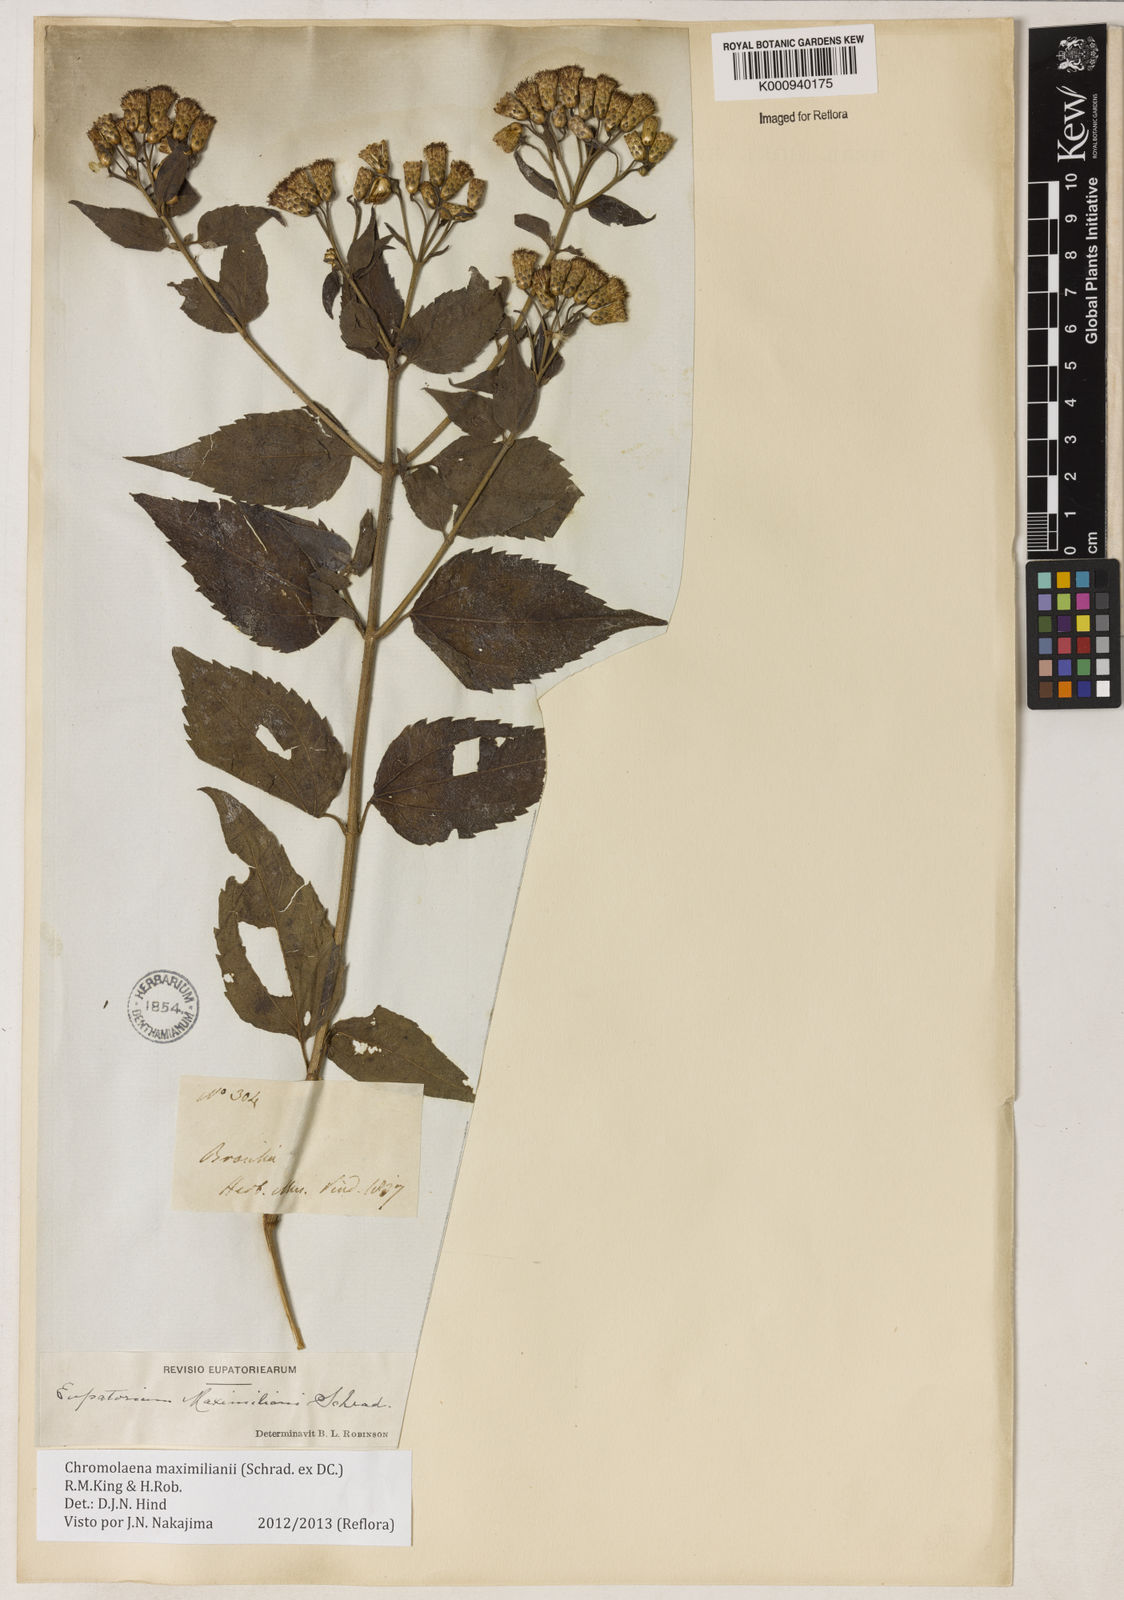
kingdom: Plantae
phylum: Tracheophyta
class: Magnoliopsida
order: Asterales
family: Asteraceae
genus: Chromolaena
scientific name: Chromolaena maximiliani
